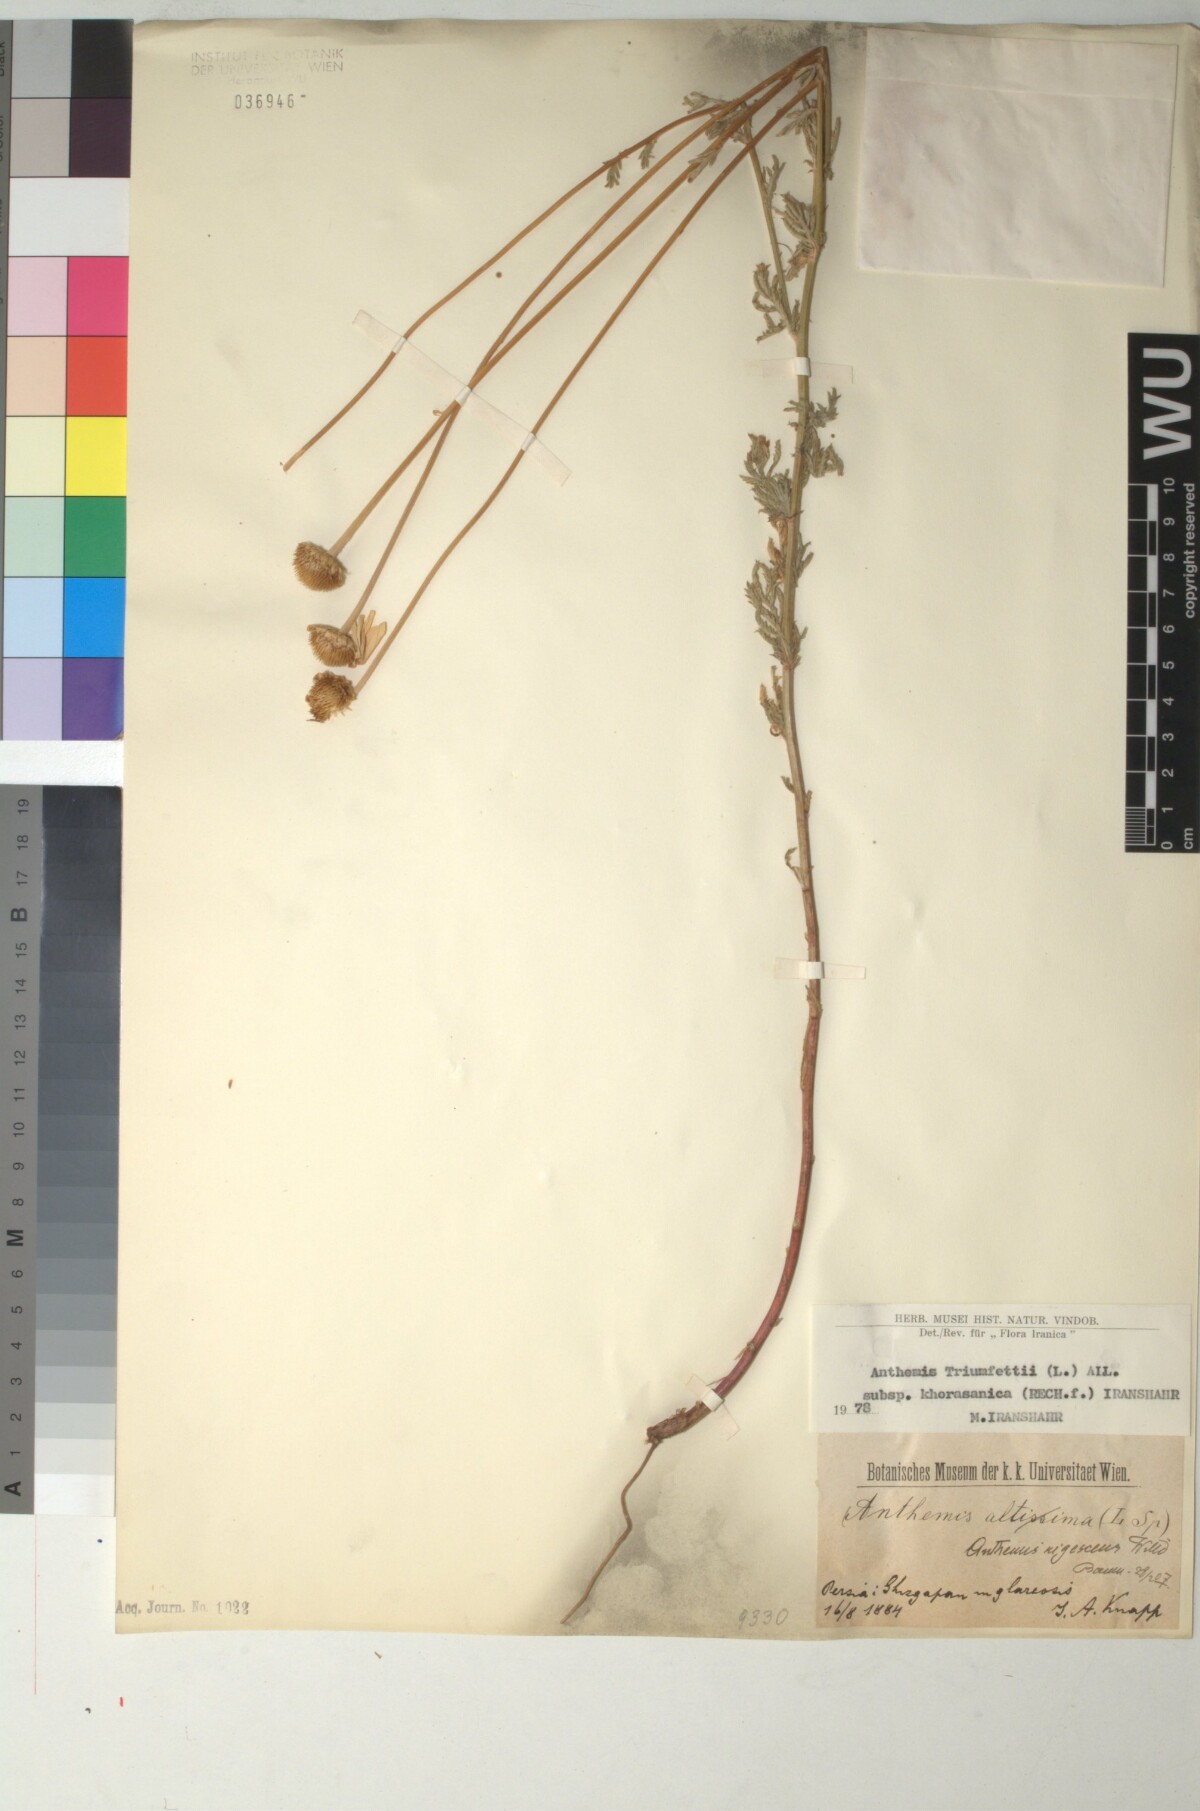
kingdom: Plantae
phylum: Tracheophyta
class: Magnoliopsida
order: Asterales
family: Asteraceae
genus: Cota
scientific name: Cota austriaca
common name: Austrian chamomile
